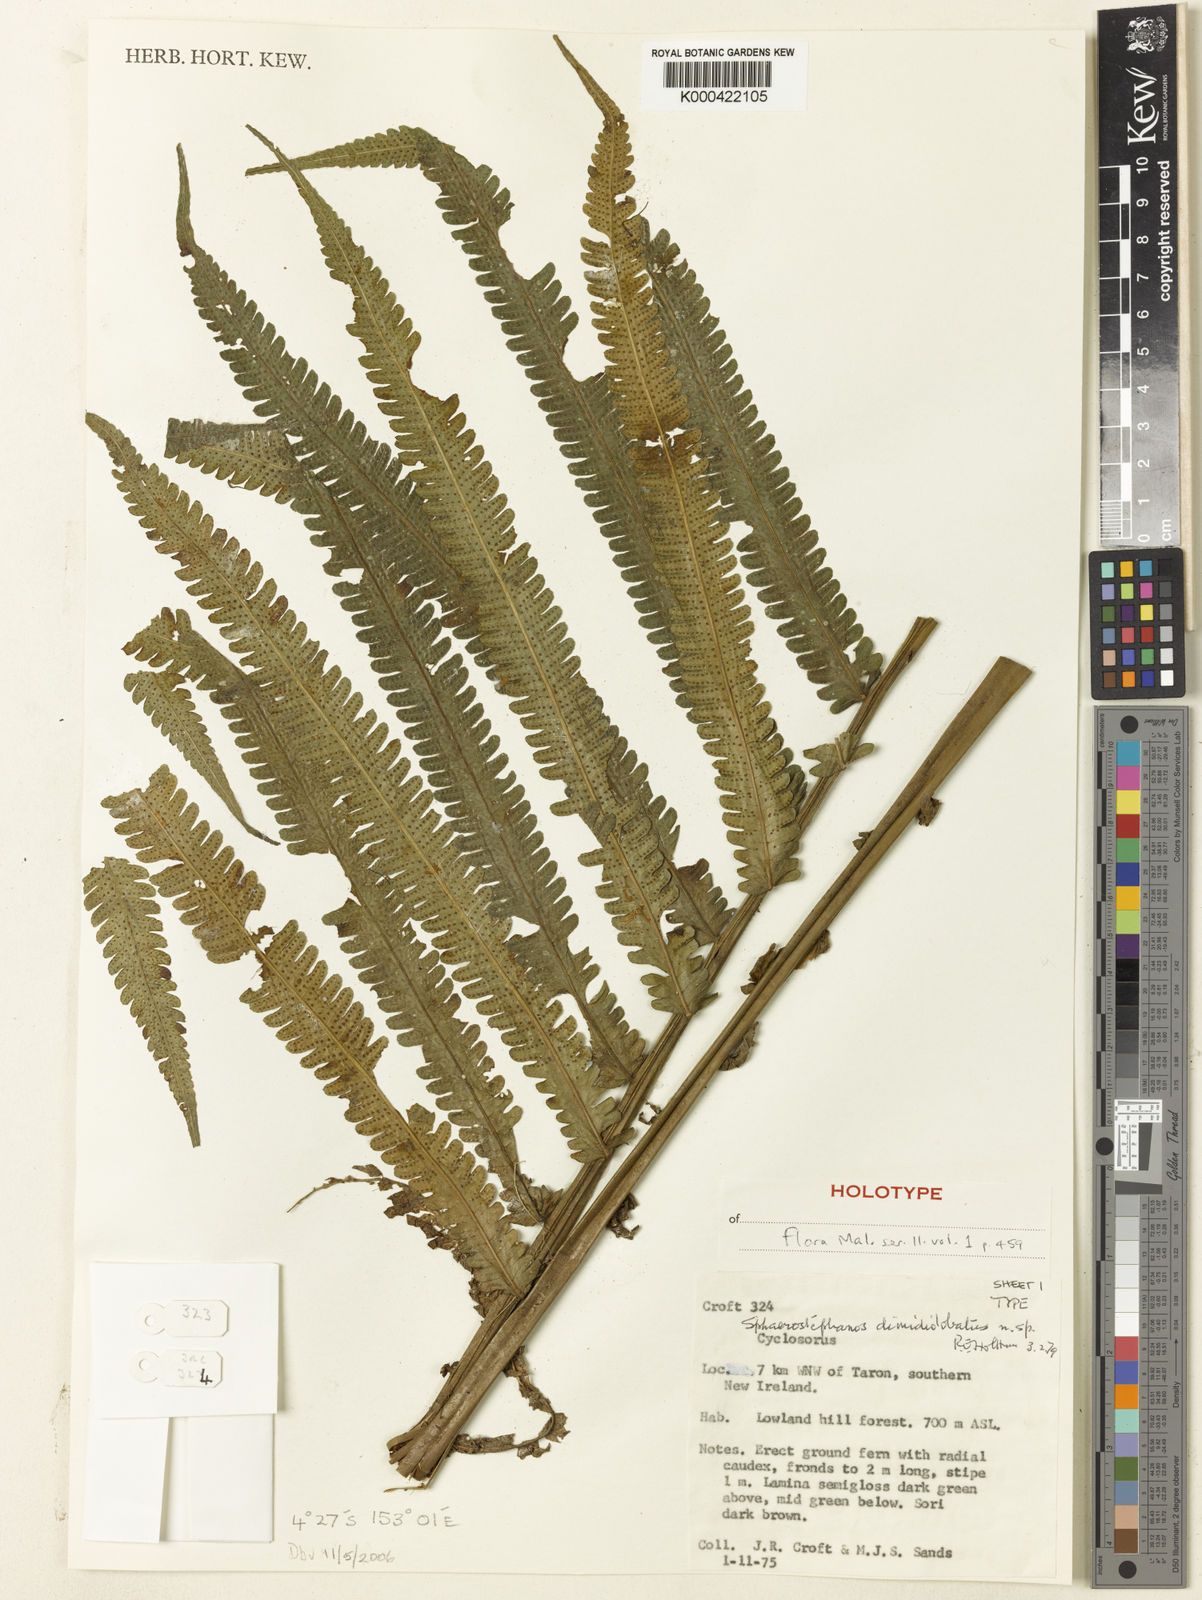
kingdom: Plantae
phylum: Tracheophyta
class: Polypodiopsida
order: Polypodiales
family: Thelypteridaceae
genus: Sphaerostephanos
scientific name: Sphaerostephanos dimidiolobatus
